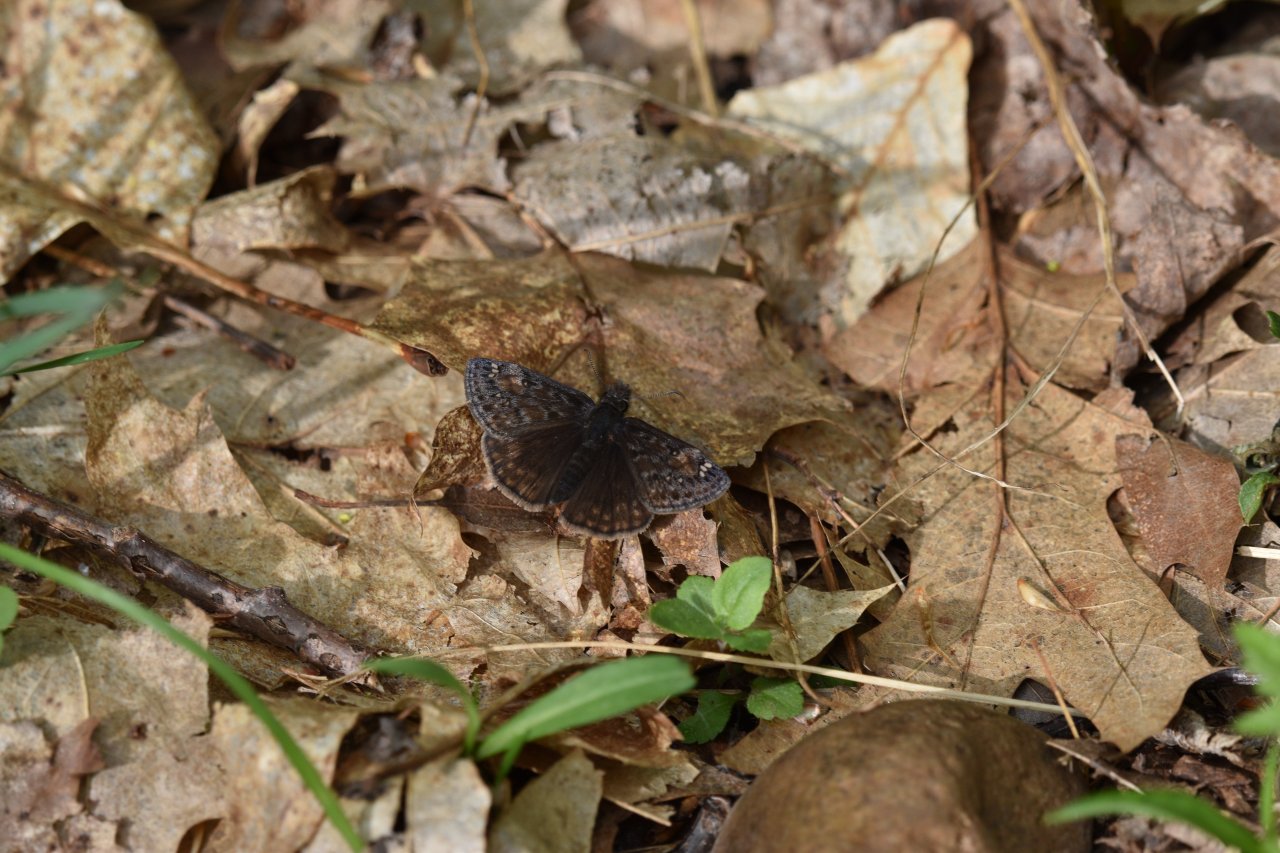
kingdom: Animalia
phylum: Arthropoda
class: Insecta
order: Lepidoptera
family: Hesperiidae
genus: Gesta
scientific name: Gesta
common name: Juvenal's Duskywing
